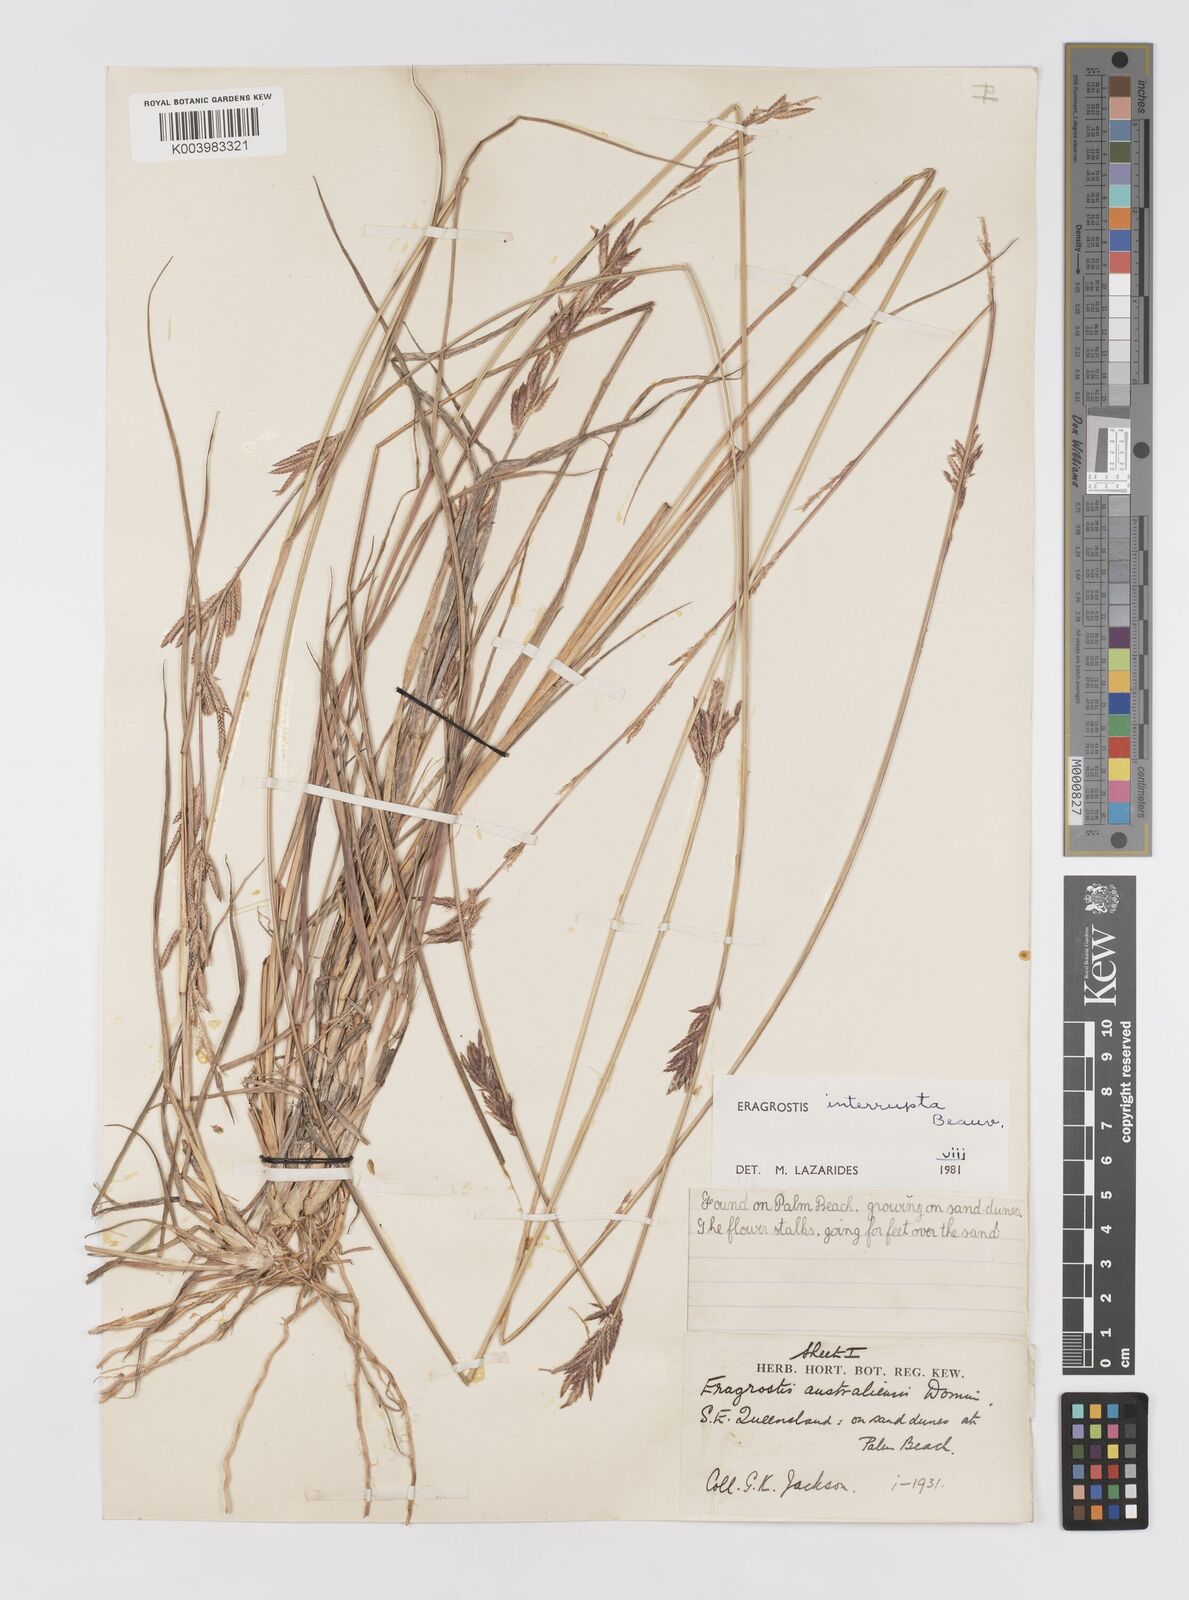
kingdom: Plantae
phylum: Tracheophyta
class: Liliopsida
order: Poales
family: Poaceae
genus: Eragrostis
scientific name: Eragrostis interrupta
